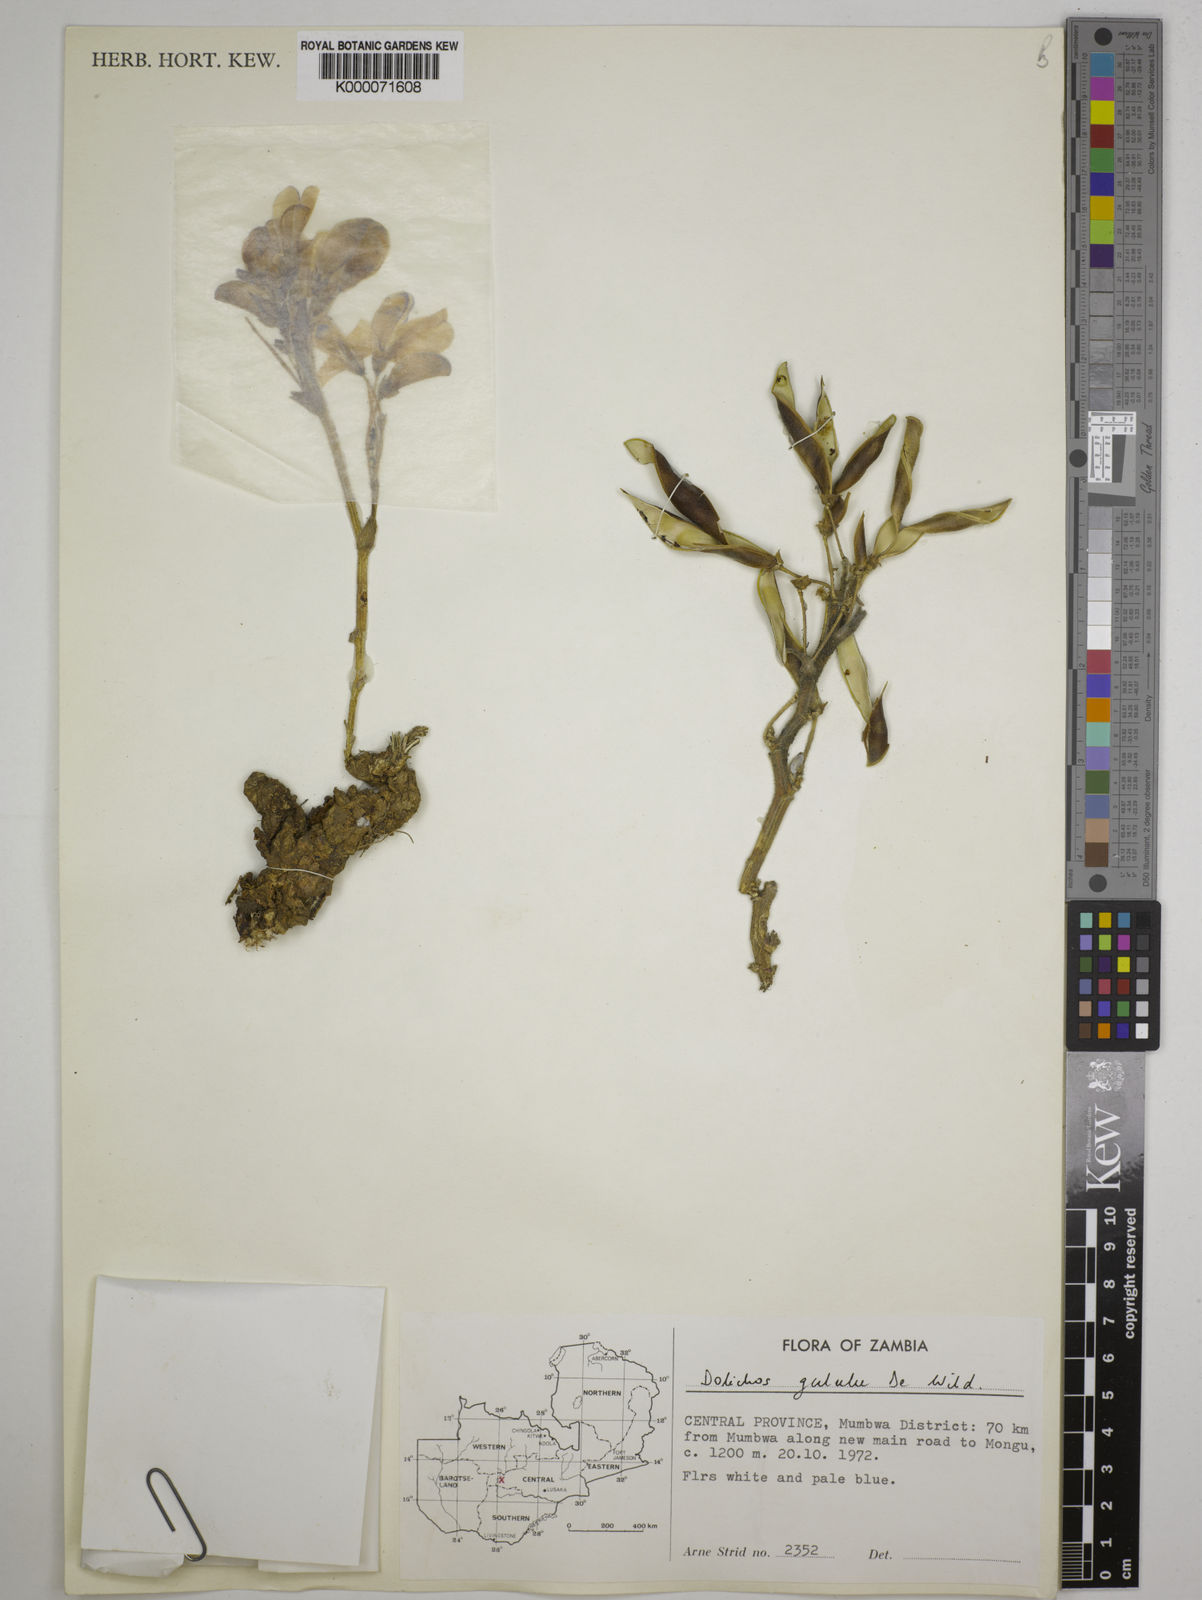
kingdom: Plantae
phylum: Tracheophyta
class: Magnoliopsida
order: Fabales
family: Fabaceae
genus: Dolichos
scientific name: Dolichos gululu
